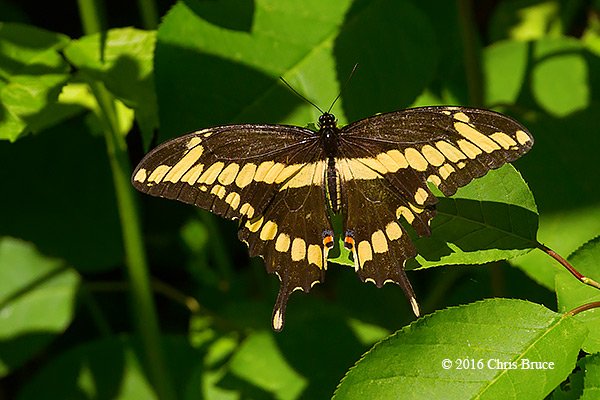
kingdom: Animalia
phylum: Arthropoda
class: Insecta
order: Lepidoptera
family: Papilionidae
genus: Papilio
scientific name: Papilio cresphontes
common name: Eastern Giant Swallowtail
